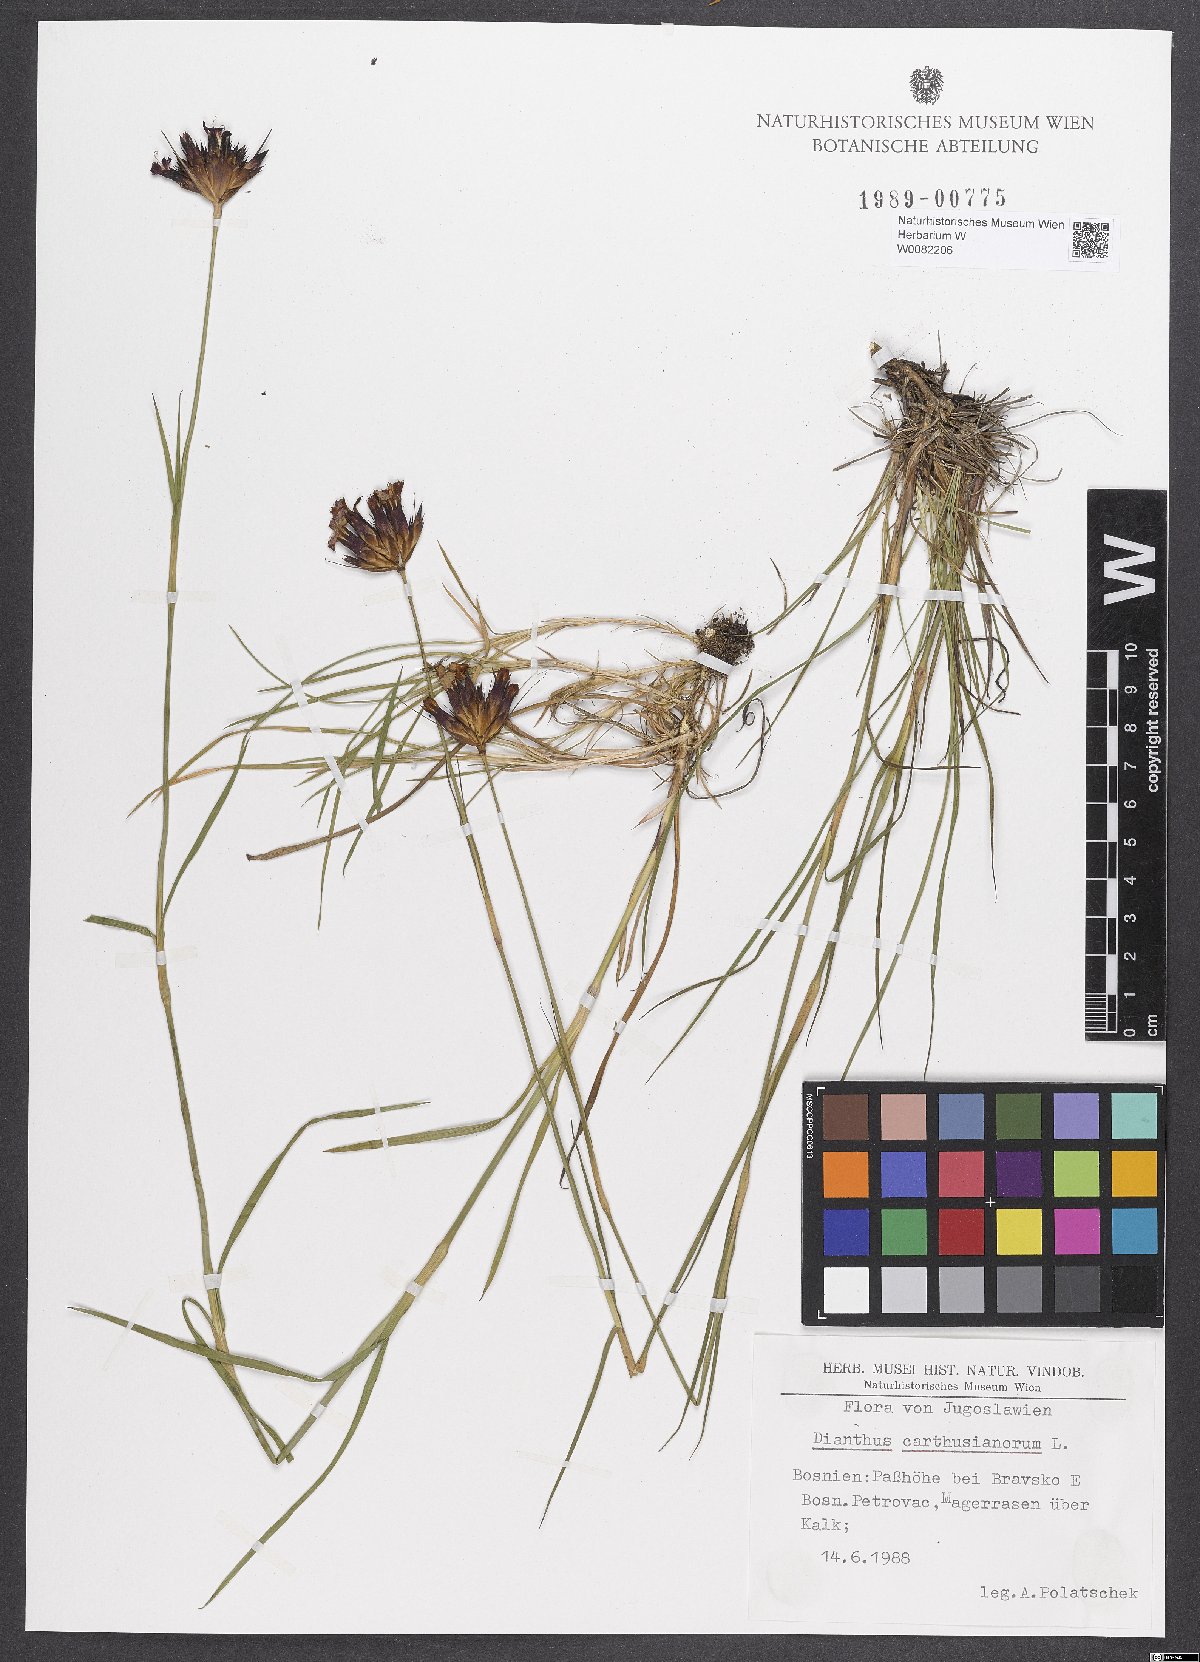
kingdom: Plantae
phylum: Tracheophyta
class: Magnoliopsida
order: Caryophyllales
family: Caryophyllaceae
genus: Dianthus
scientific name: Dianthus carthusianorum
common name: Carthusian pink
